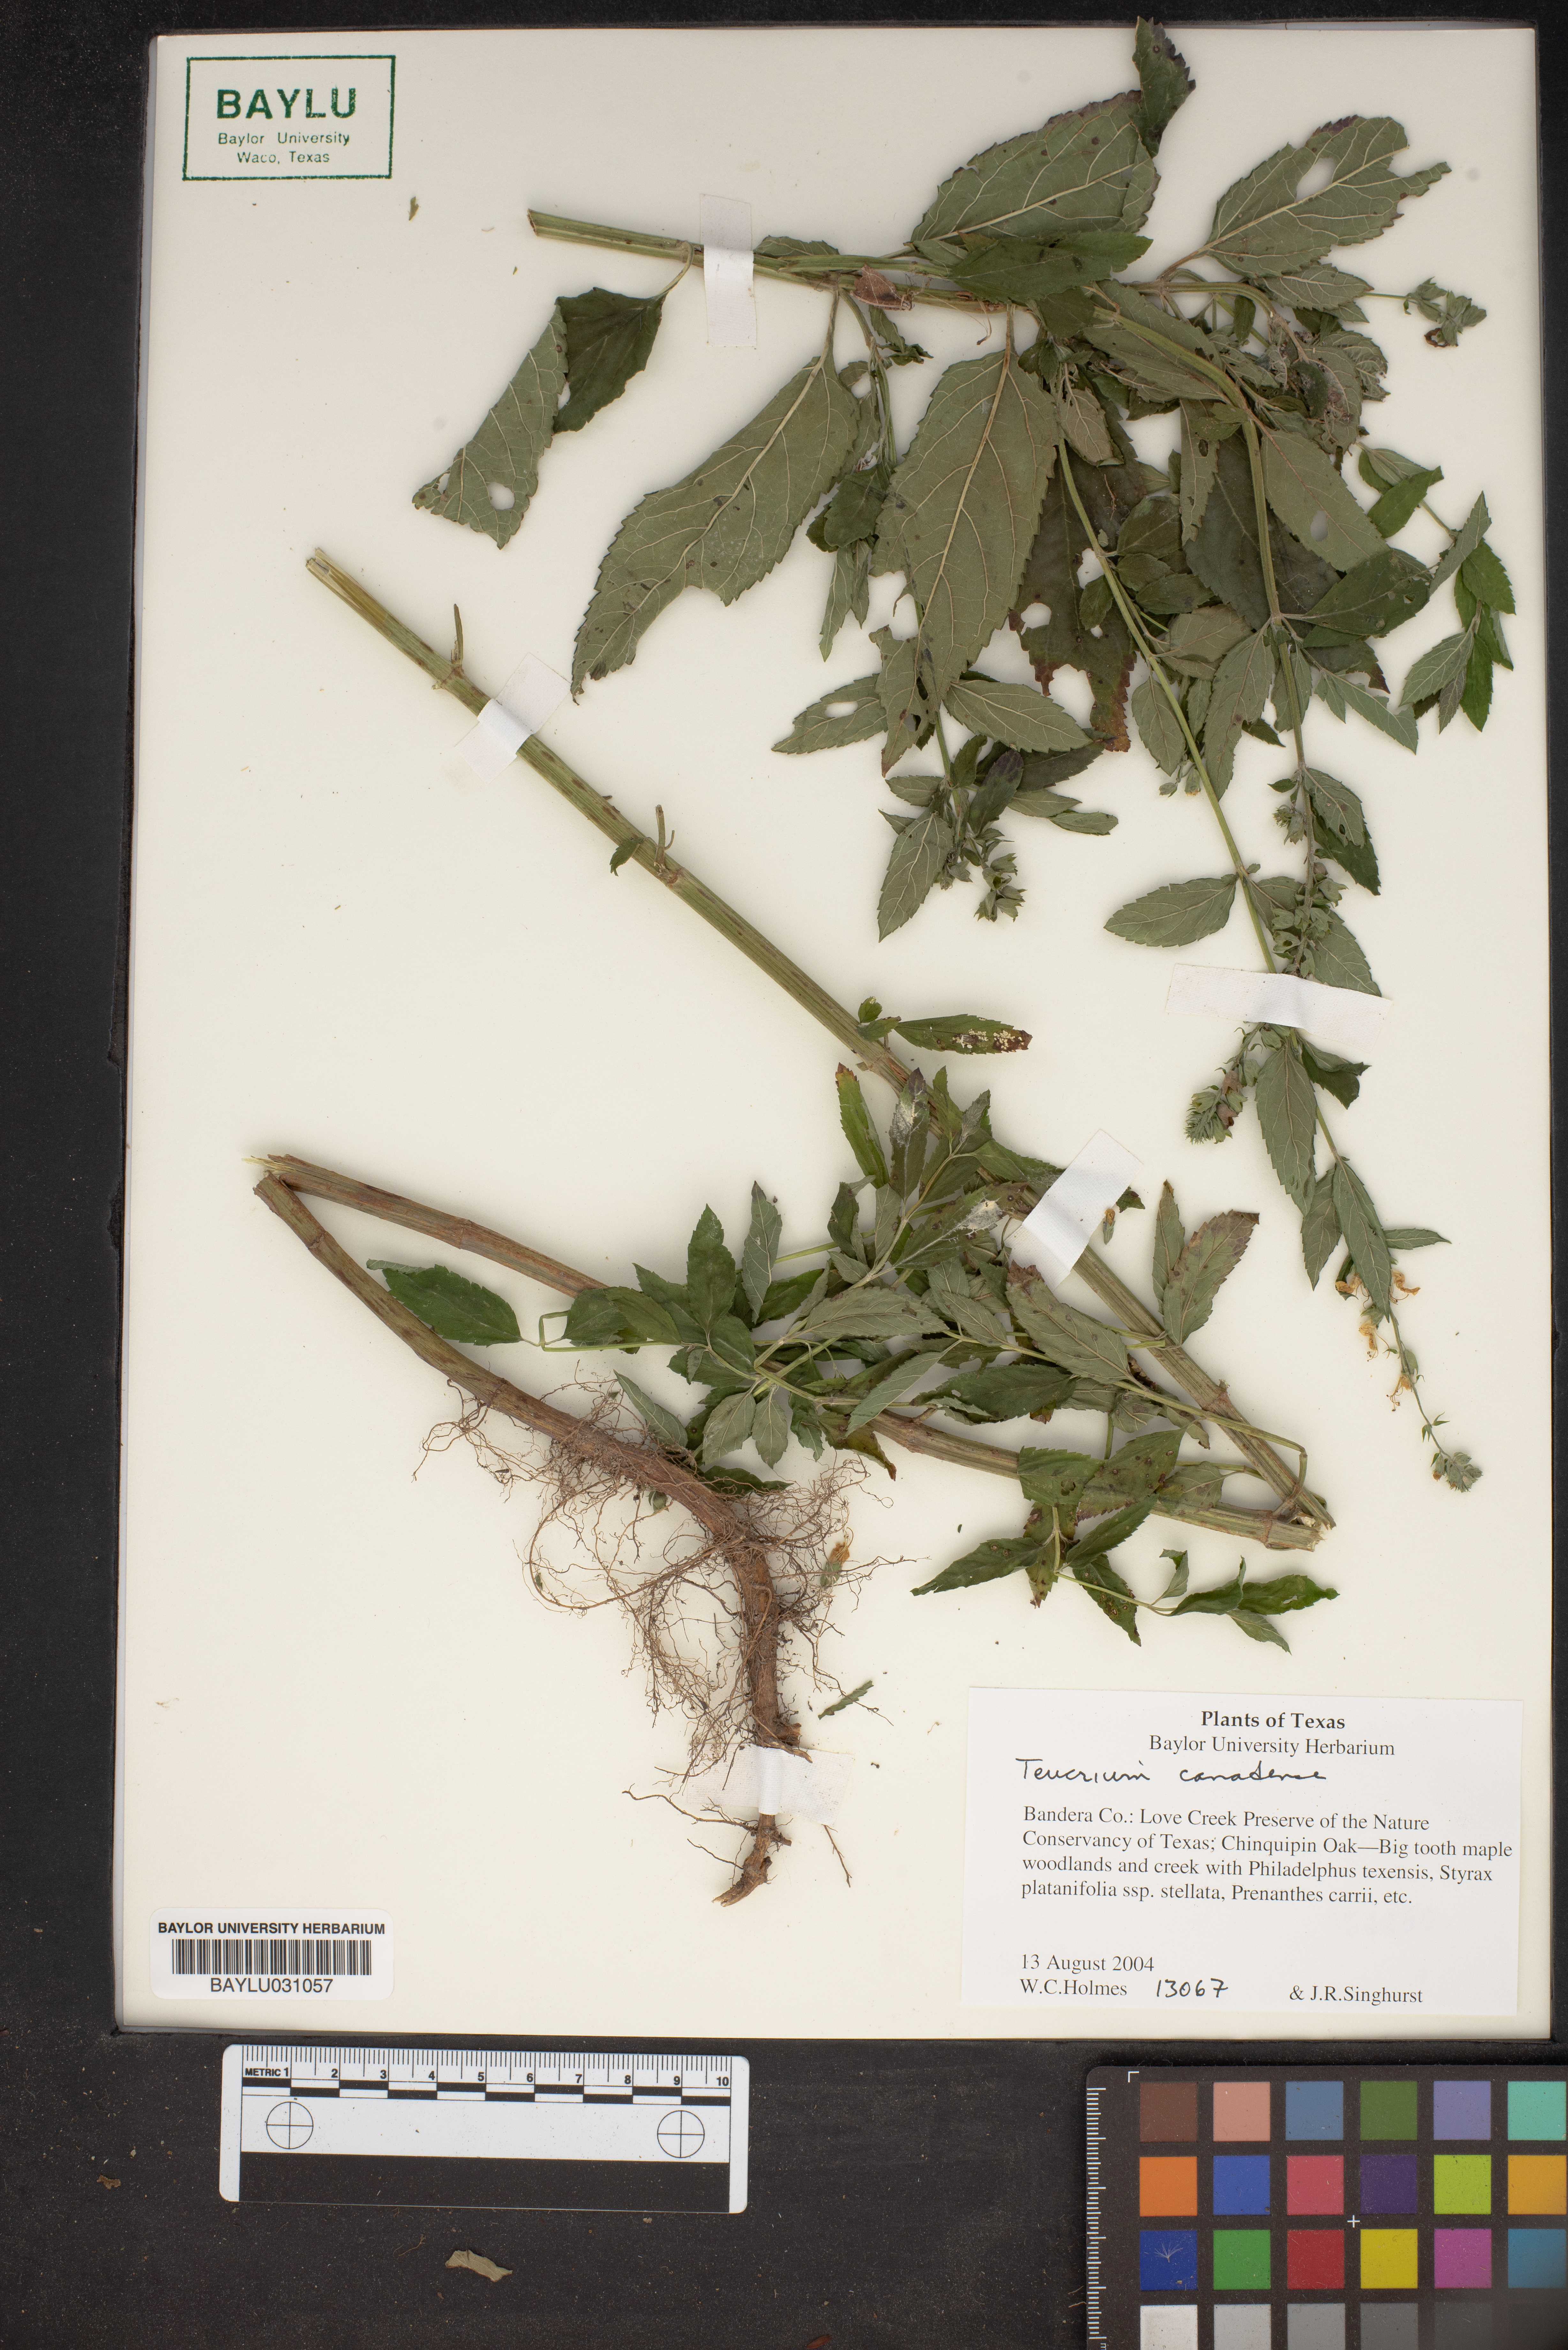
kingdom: Plantae
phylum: Tracheophyta
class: Magnoliopsida
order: Lamiales
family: Lamiaceae
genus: Teucrium
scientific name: Teucrium canadense
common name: American germander
